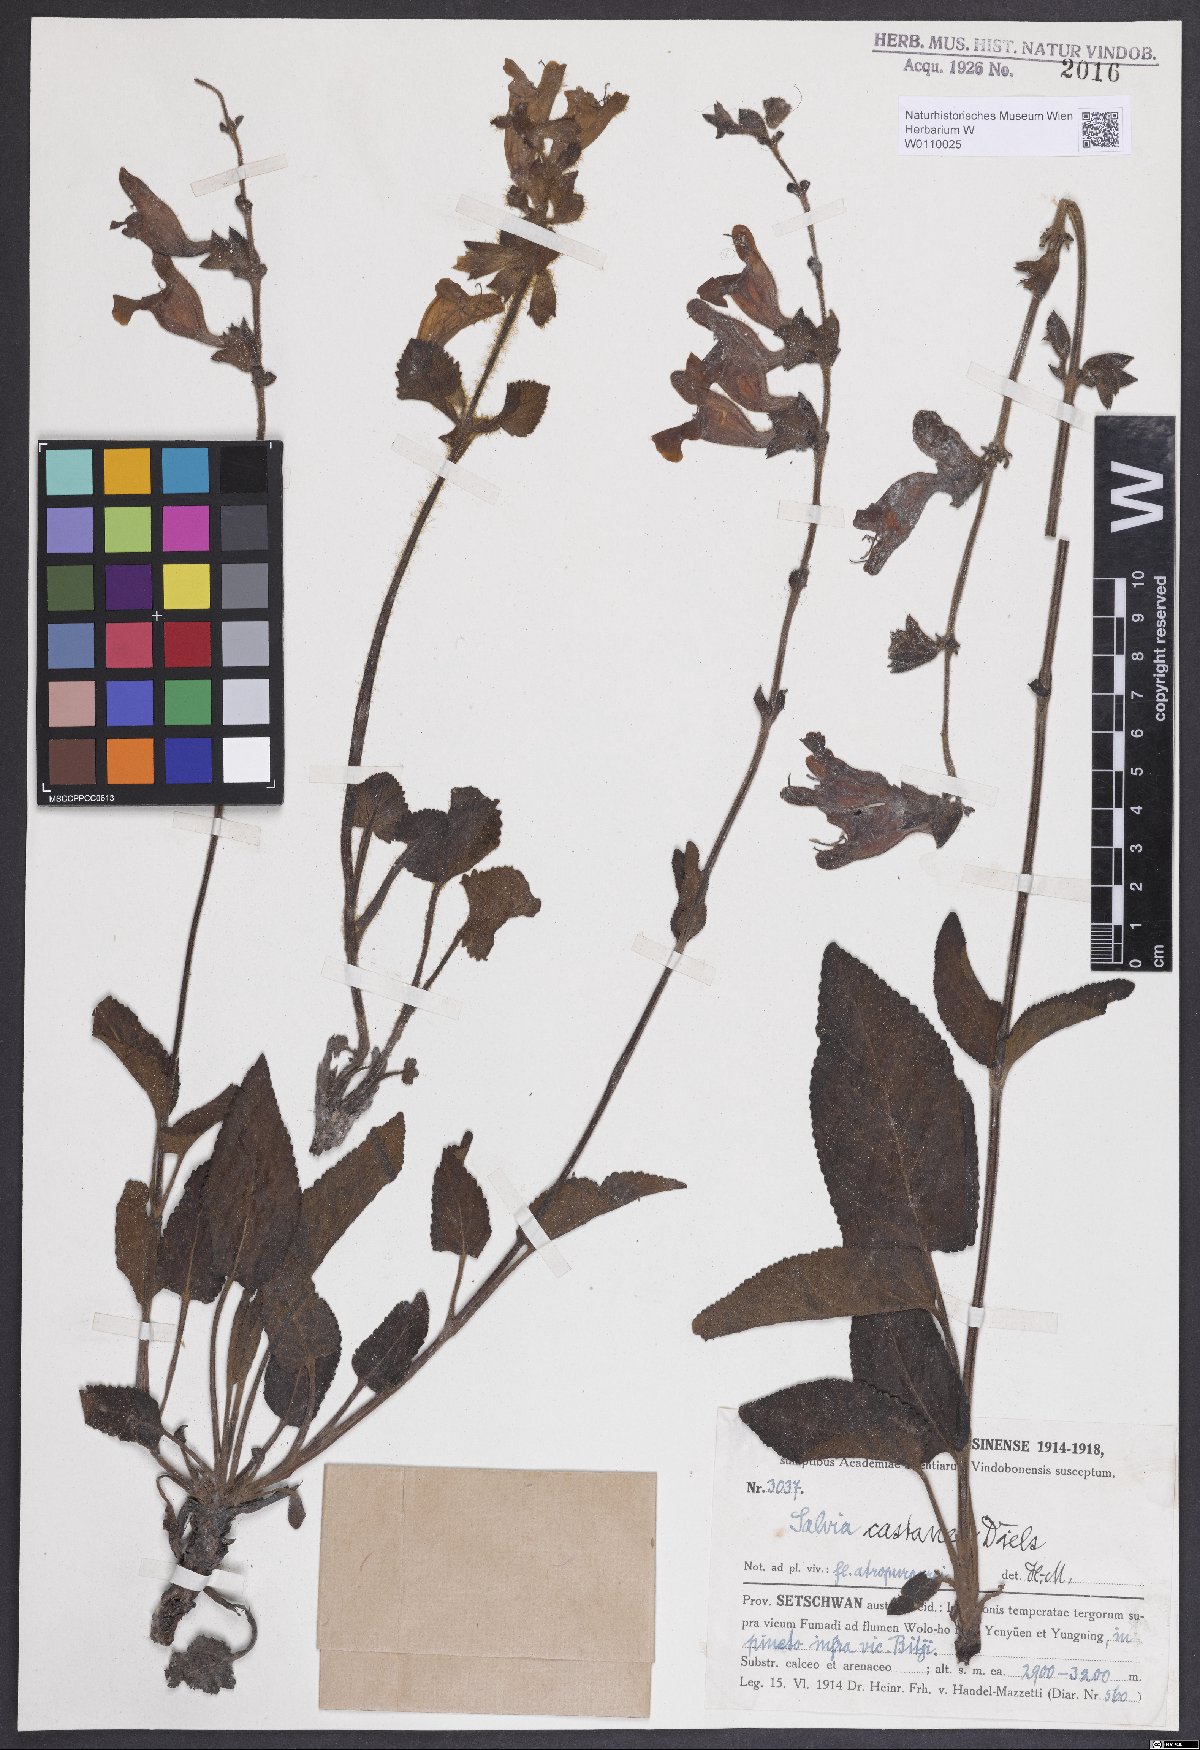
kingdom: Plantae
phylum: Tracheophyta
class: Magnoliopsida
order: Lamiales
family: Lamiaceae
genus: Salvia
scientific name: Salvia castanea
